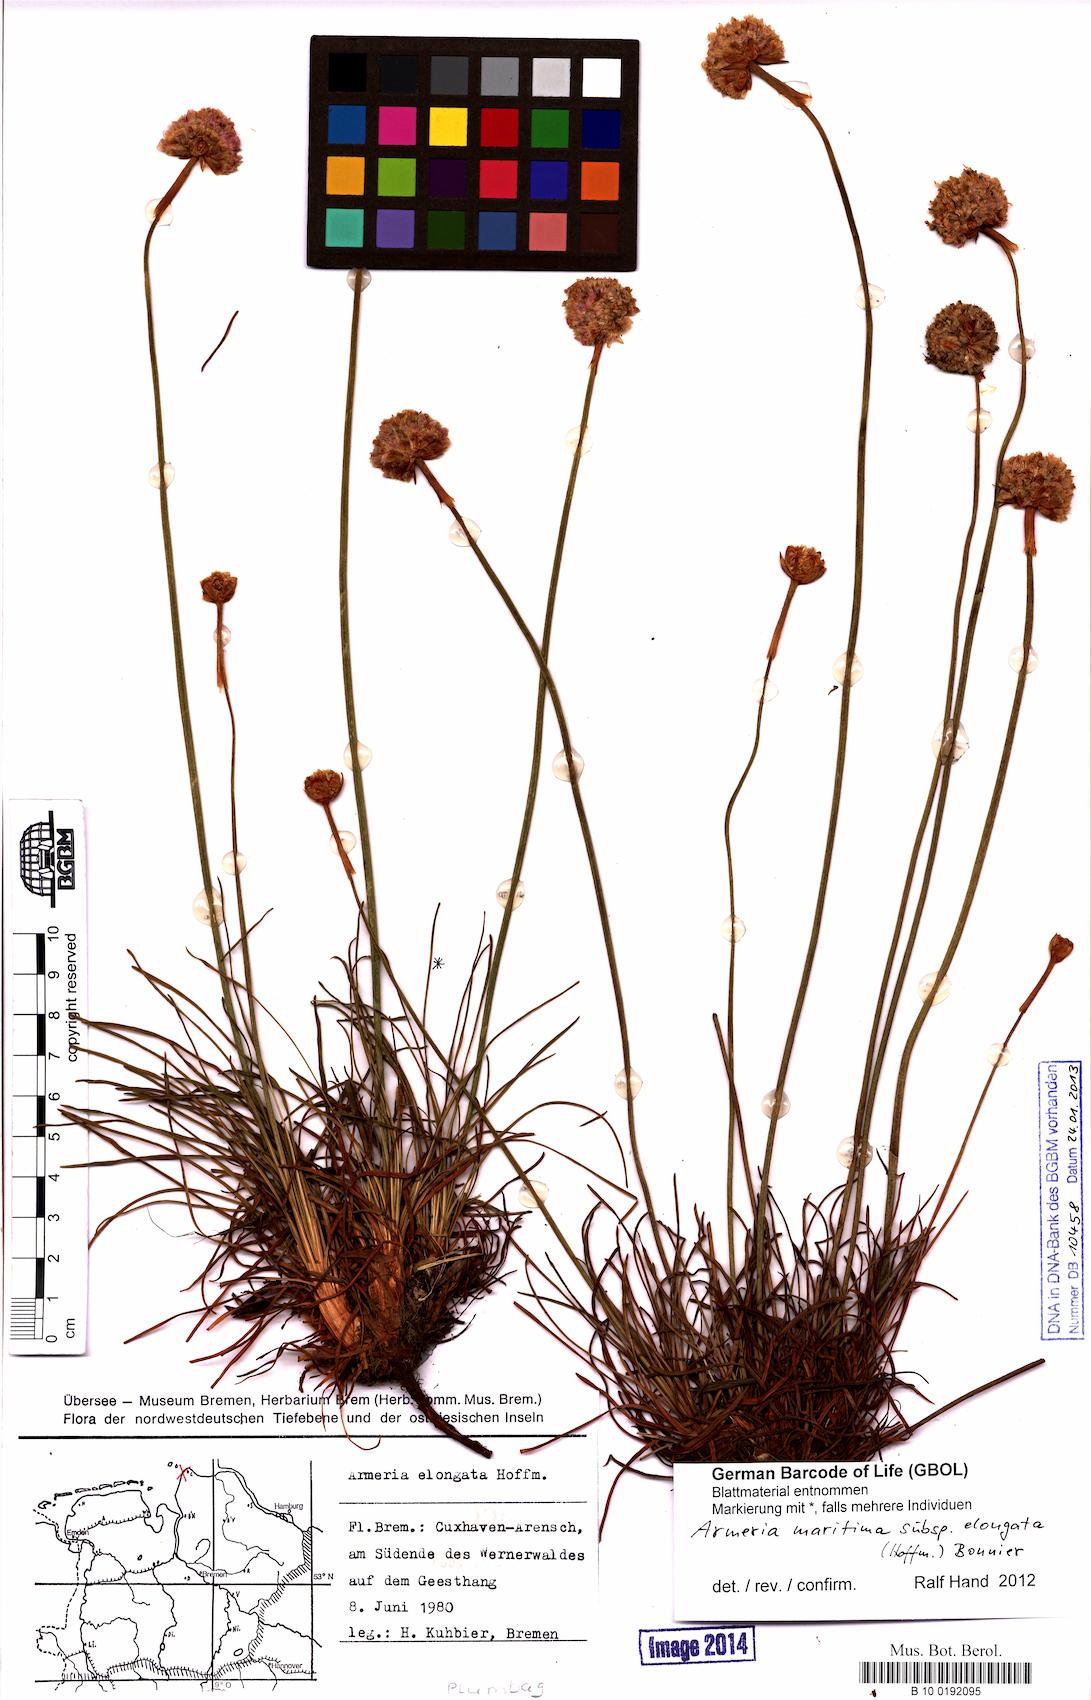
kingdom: Plantae
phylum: Tracheophyta
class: Magnoliopsida
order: Caryophyllales
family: Plumbaginaceae
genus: Armeria
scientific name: Armeria maritima
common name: Thrift
